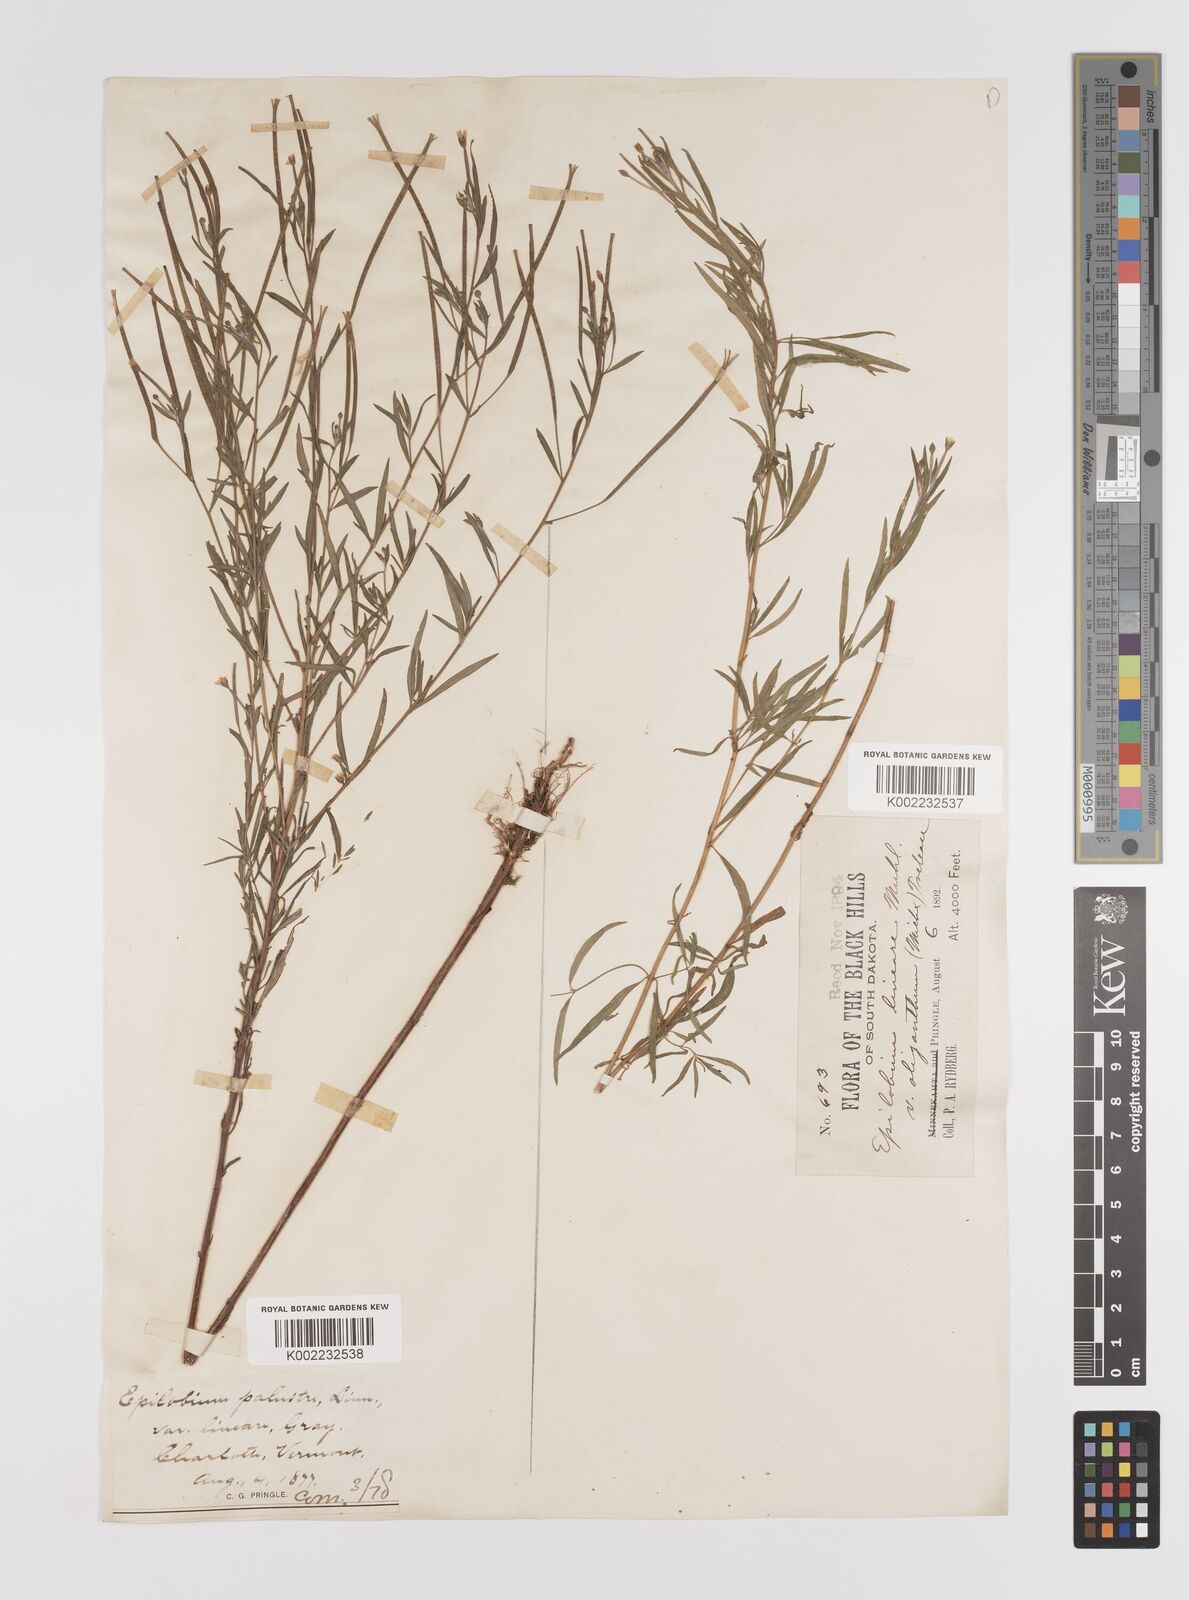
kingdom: Plantae
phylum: Tracheophyta
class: Magnoliopsida
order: Myrtales
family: Onagraceae
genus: Epilobium
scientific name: Epilobium palustre
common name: Marsh willowherb
